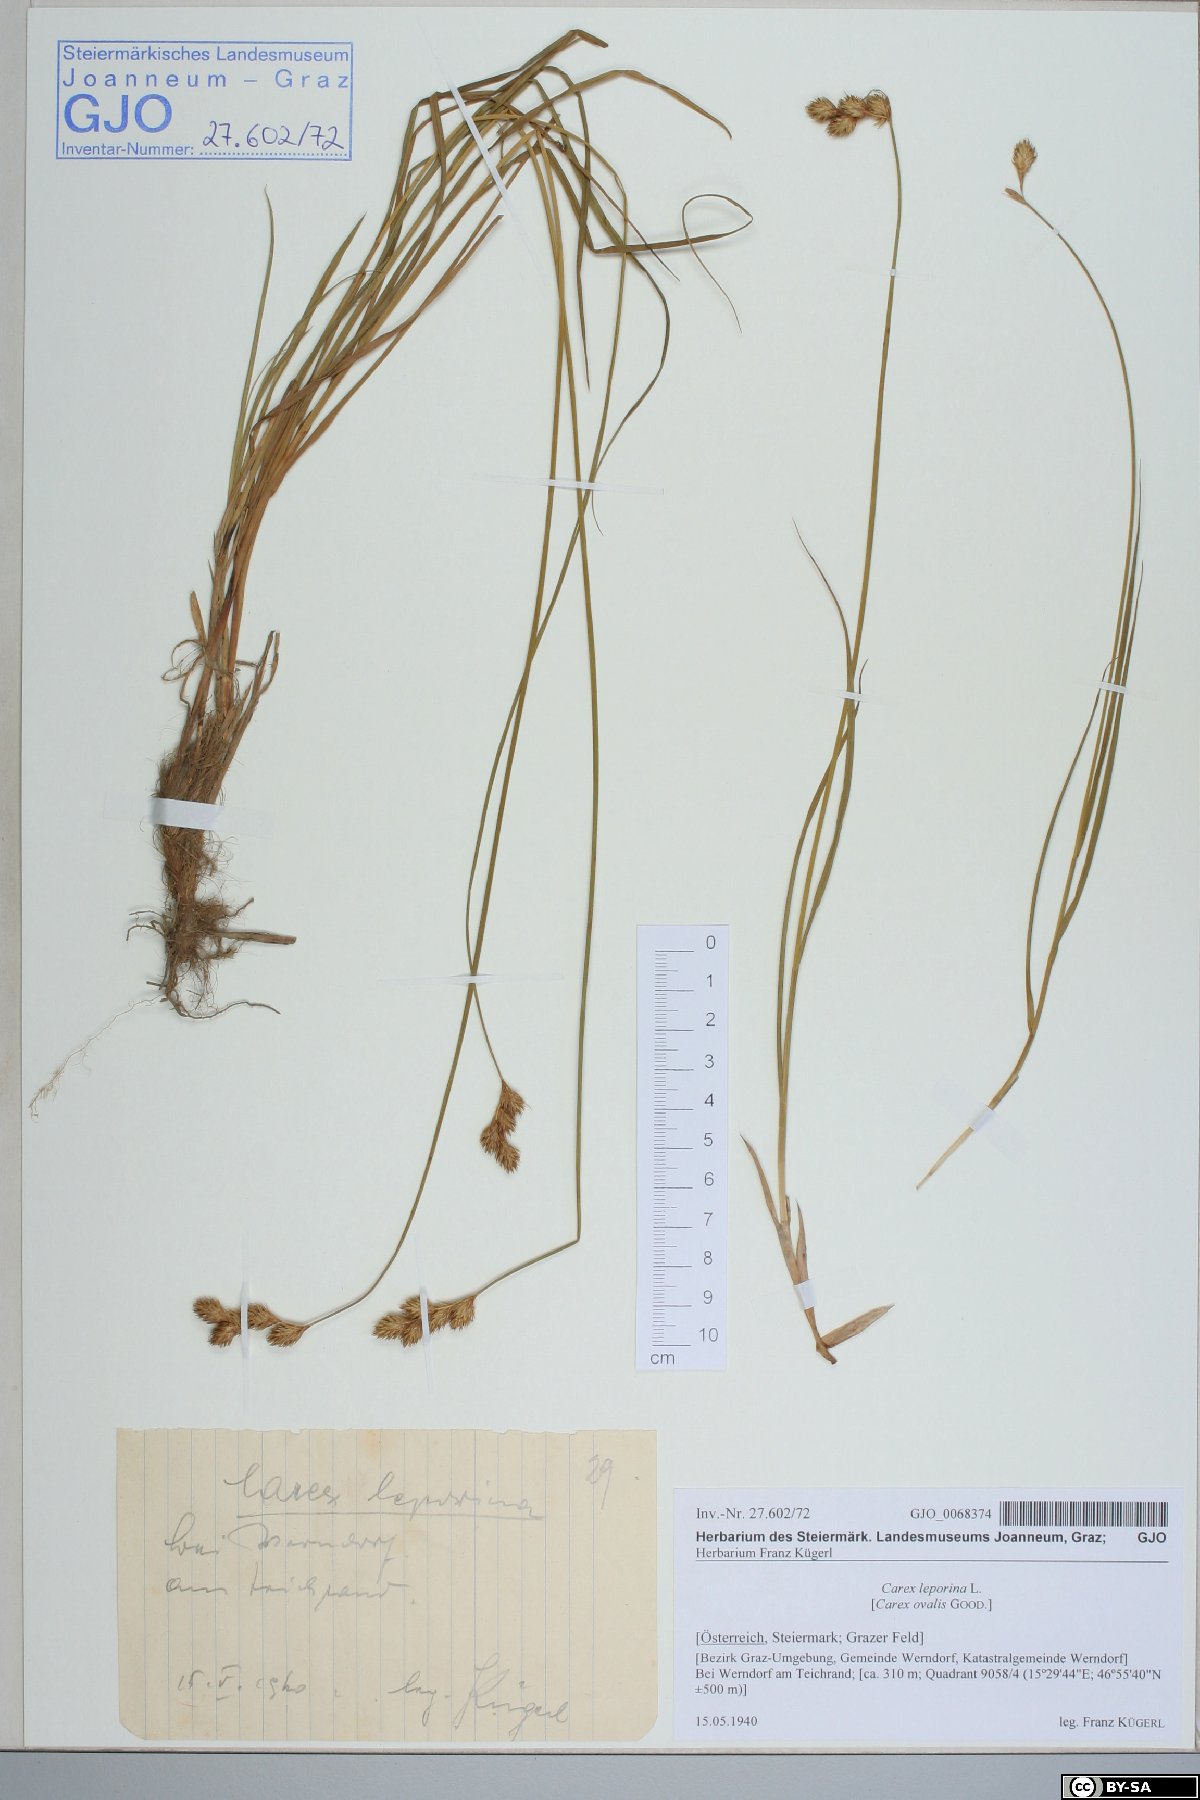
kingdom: Plantae
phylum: Tracheophyta
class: Liliopsida
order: Poales
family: Cyperaceae
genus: Carex
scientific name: Carex leporina
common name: Oval sedge
